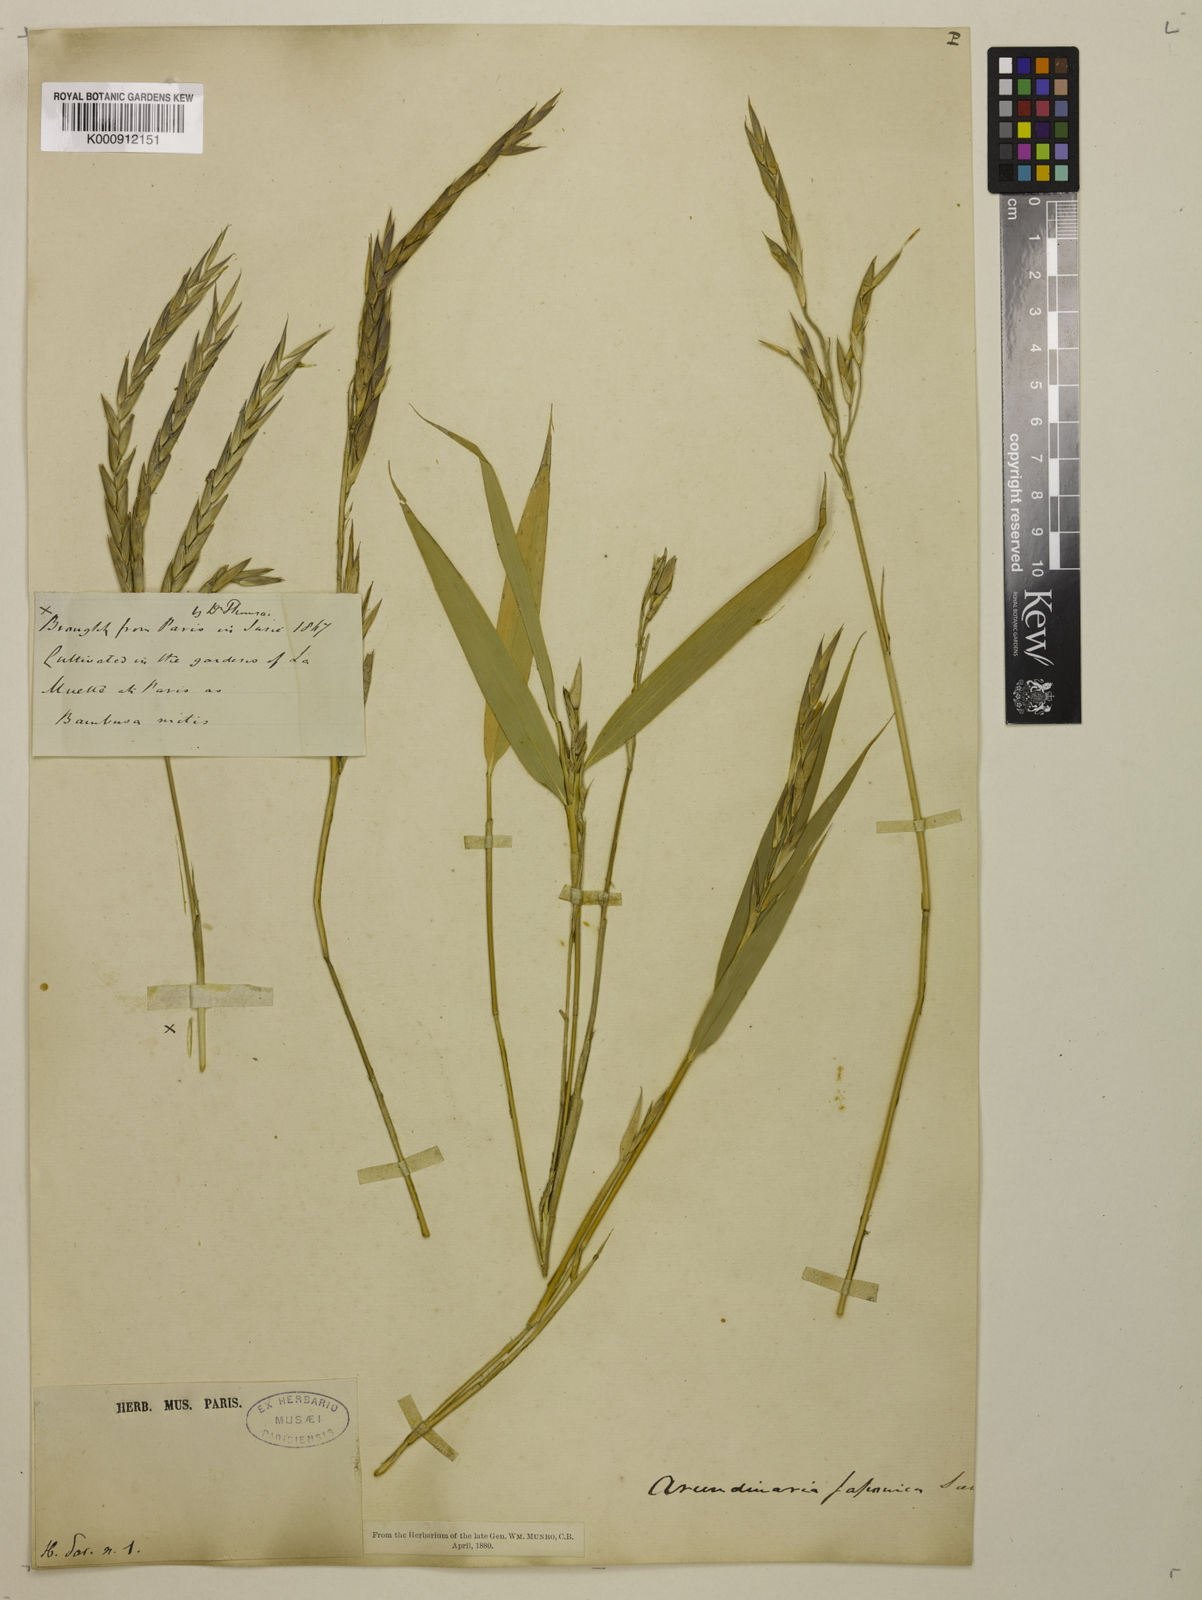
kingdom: Plantae
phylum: Tracheophyta
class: Liliopsida
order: Poales
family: Poaceae
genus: Pseudosasa
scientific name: Pseudosasa japonica
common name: Arrow bamboo
